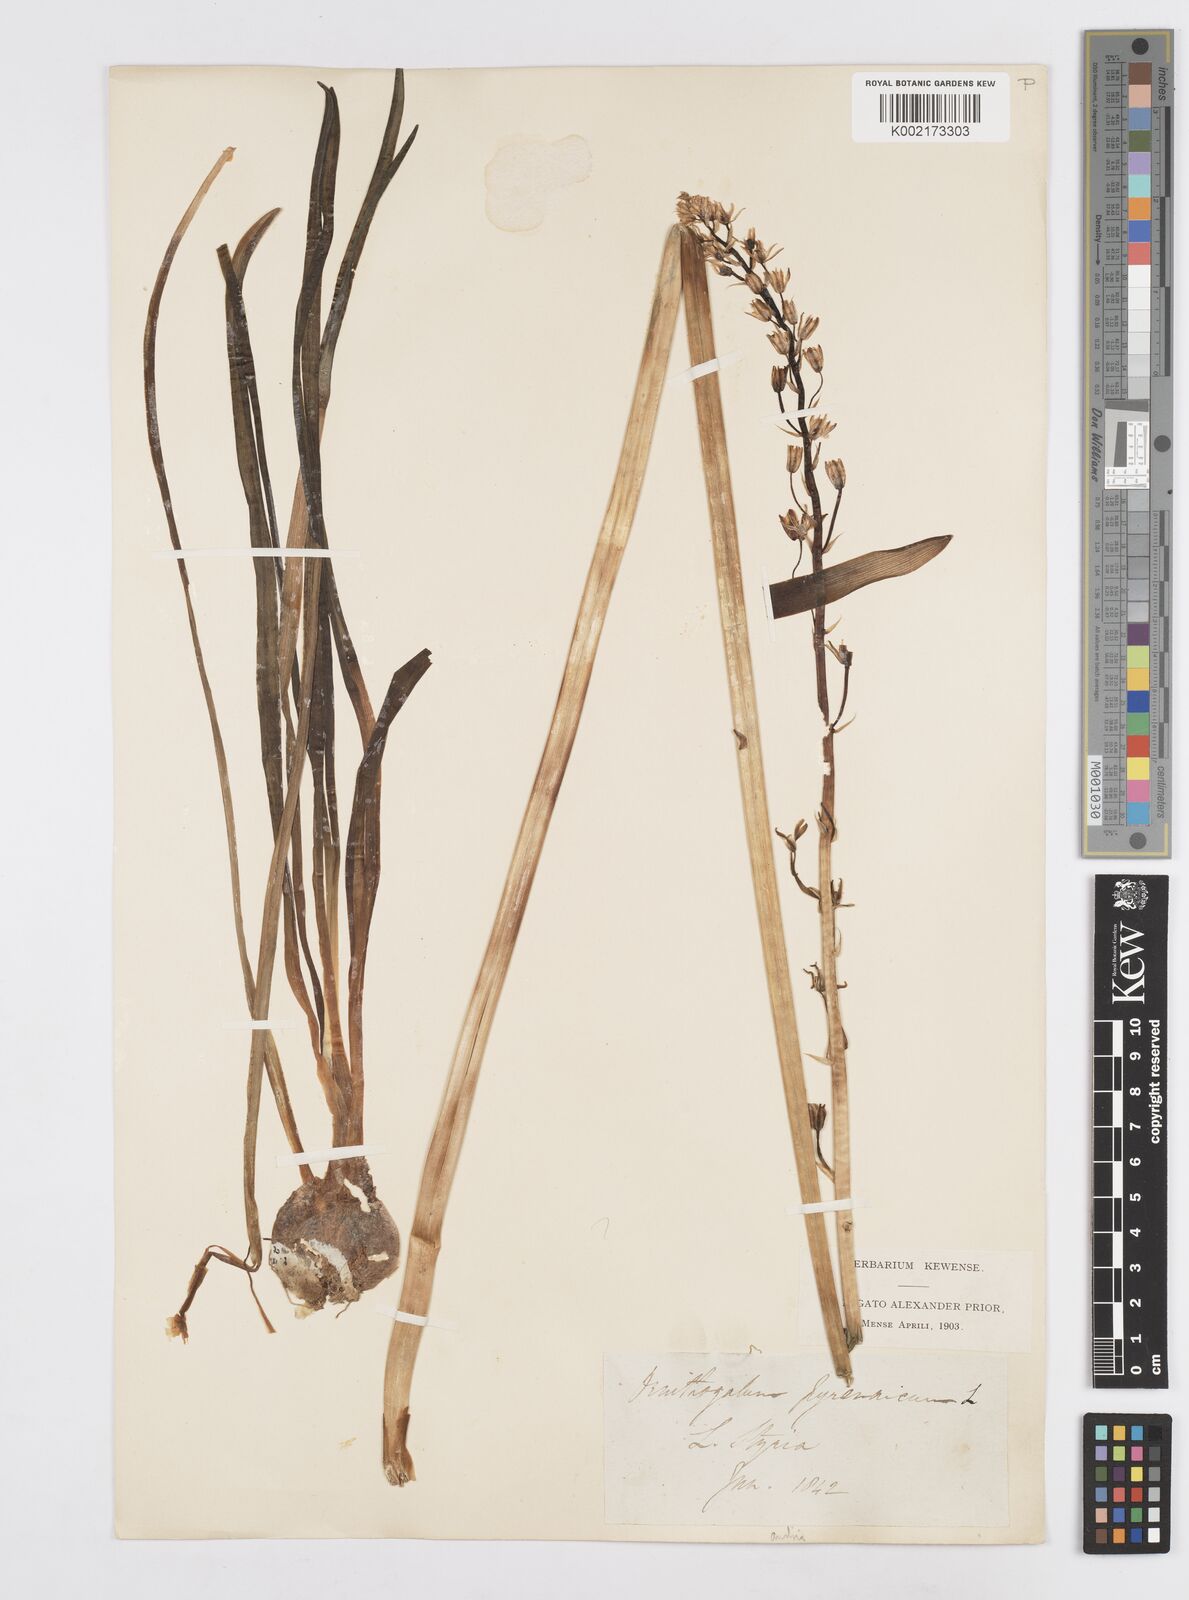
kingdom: Plantae
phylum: Tracheophyta
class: Liliopsida
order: Asparagales
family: Asparagaceae
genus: Ornithogalum
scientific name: Ornithogalum sphaerocarpum
